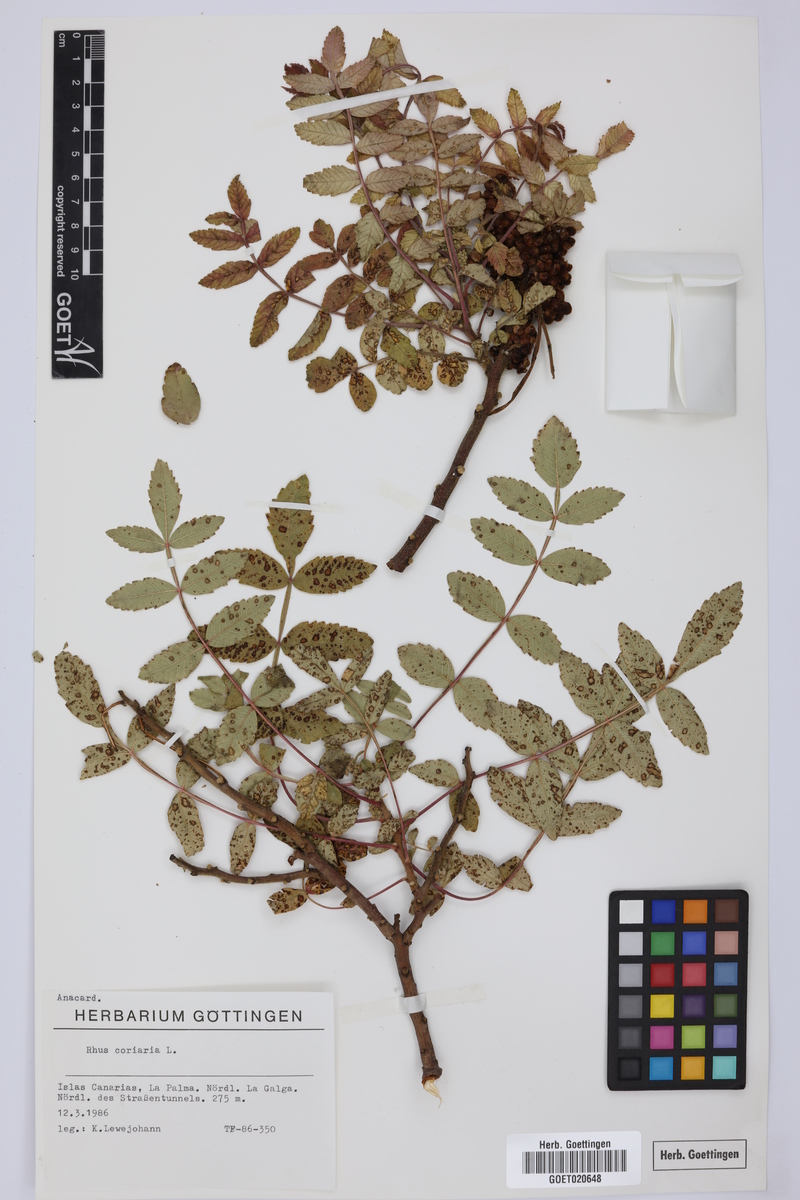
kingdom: Plantae
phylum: Tracheophyta
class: Magnoliopsida
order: Sapindales
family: Anacardiaceae
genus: Rhus
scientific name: Rhus coriaria
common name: Tanner's sumach
